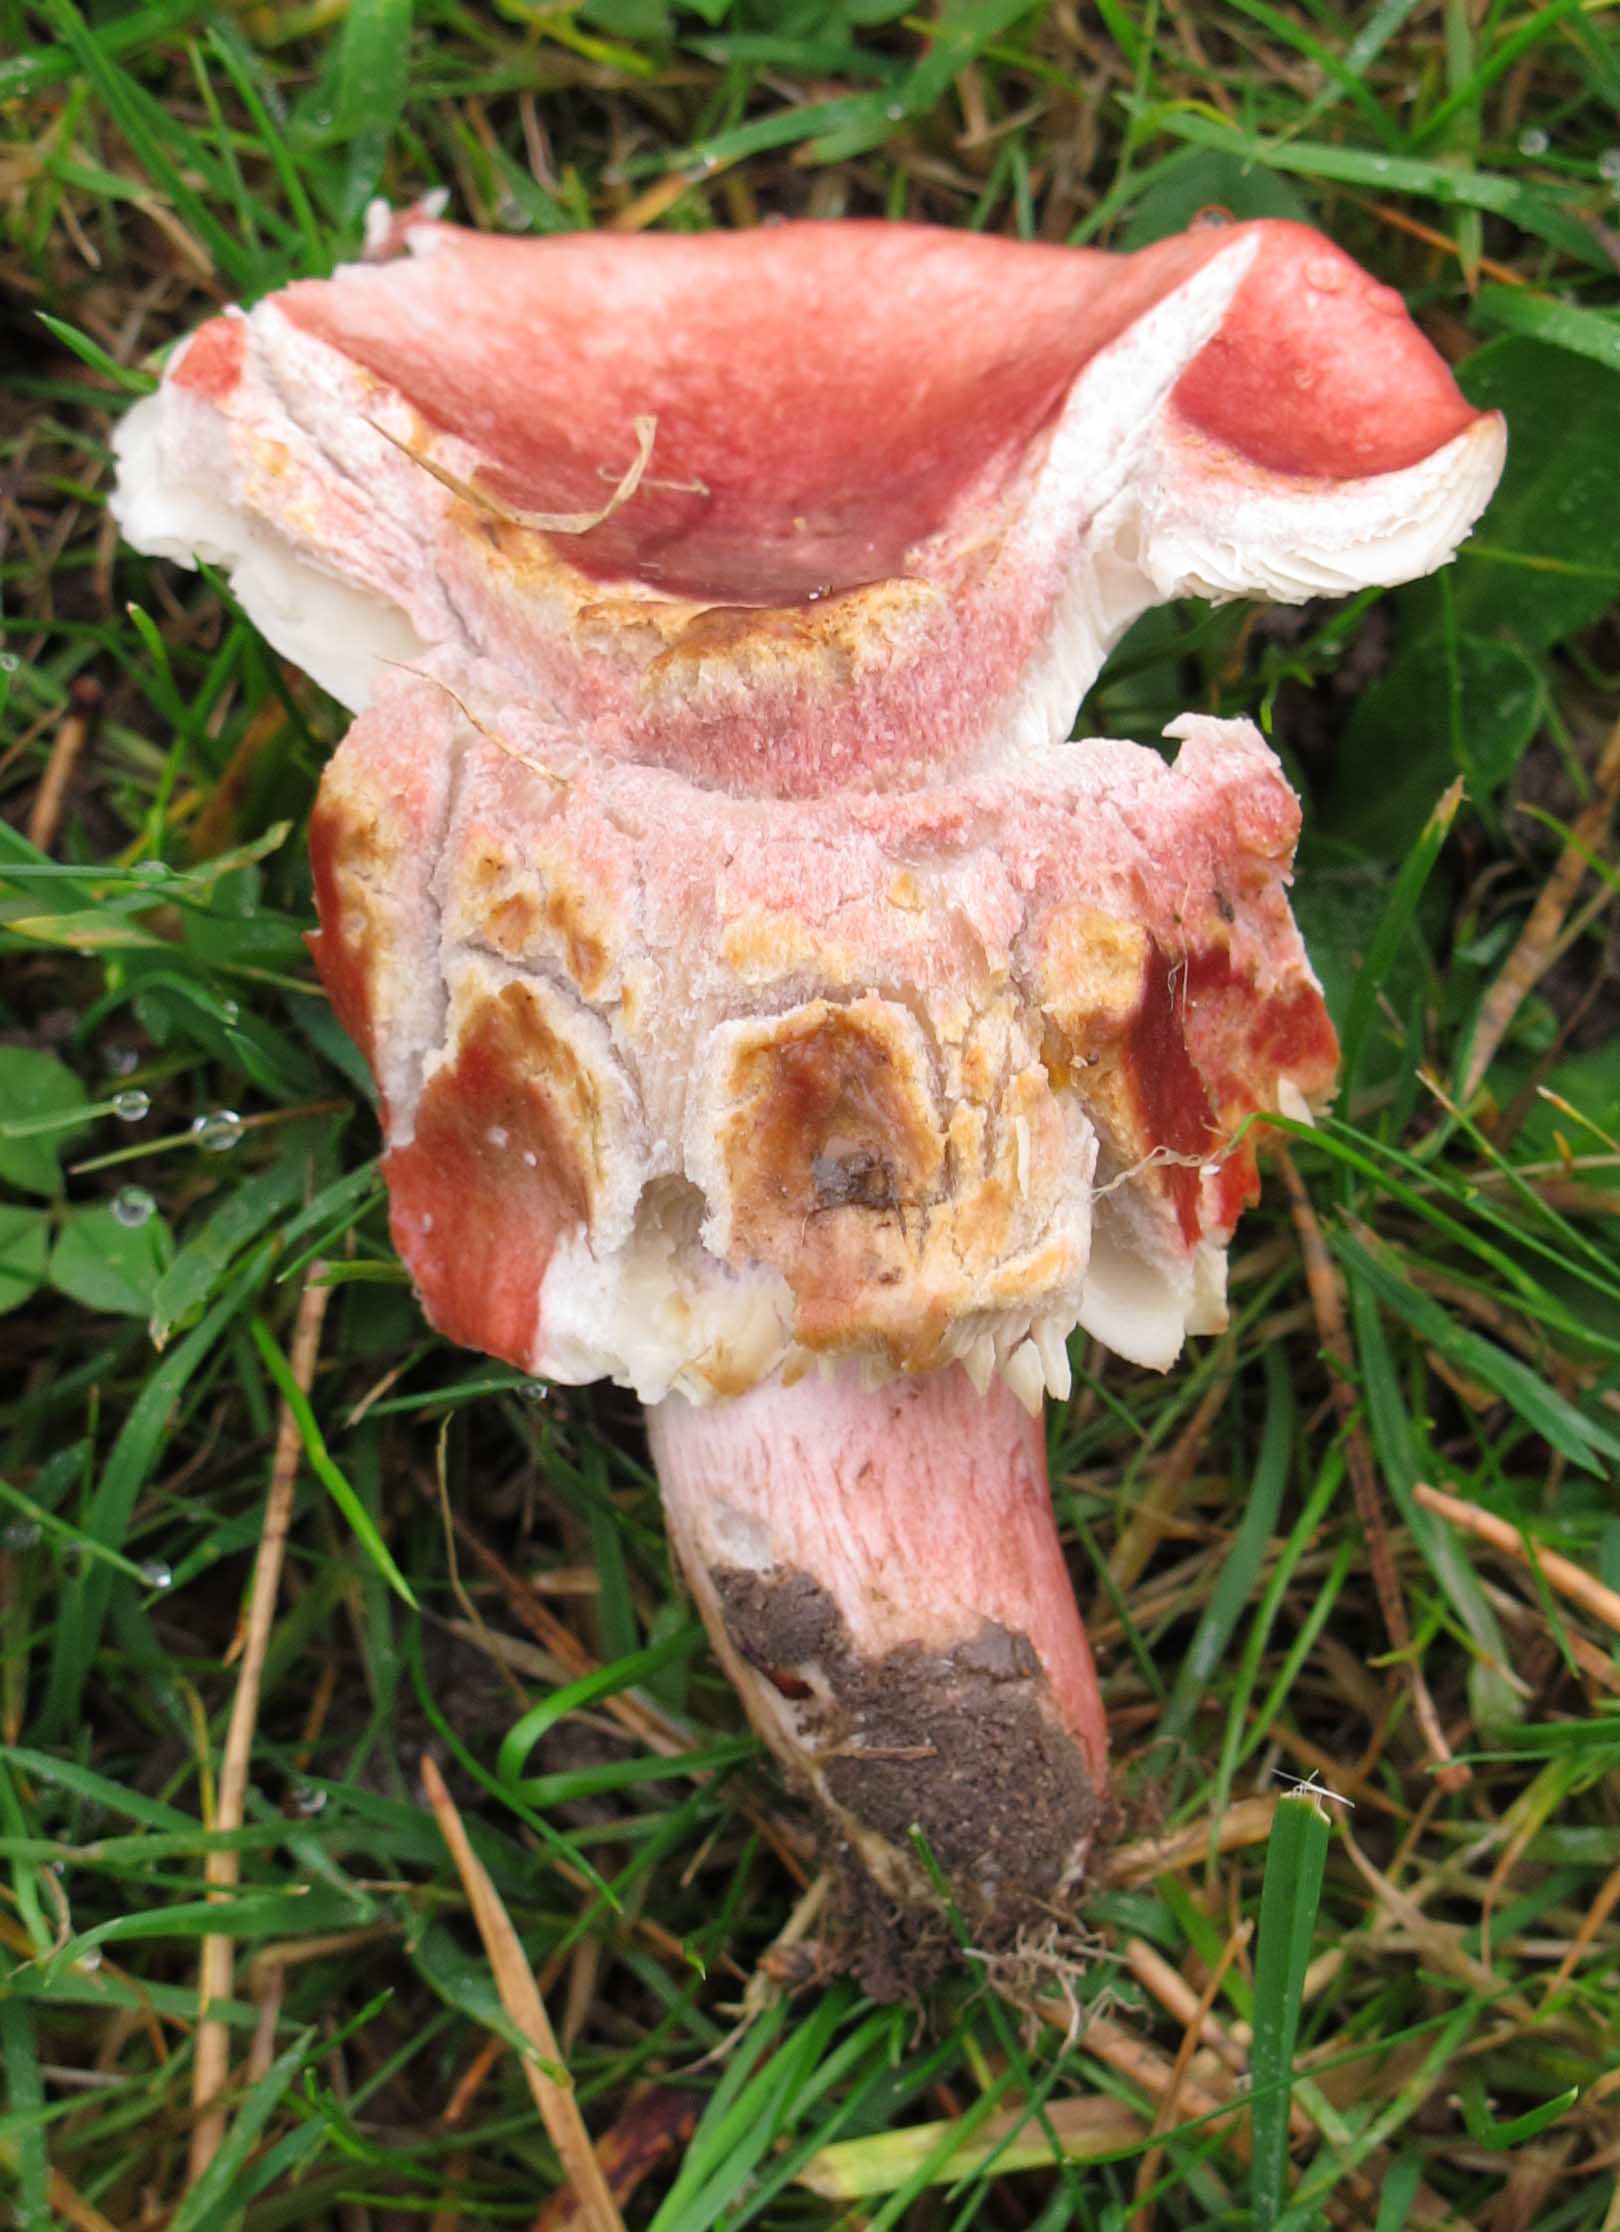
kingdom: Fungi
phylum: Basidiomycota
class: Agaricomycetes
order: Russulales
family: Russulaceae
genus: Russula
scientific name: Russula sanguinea
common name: blodrød skørhat
